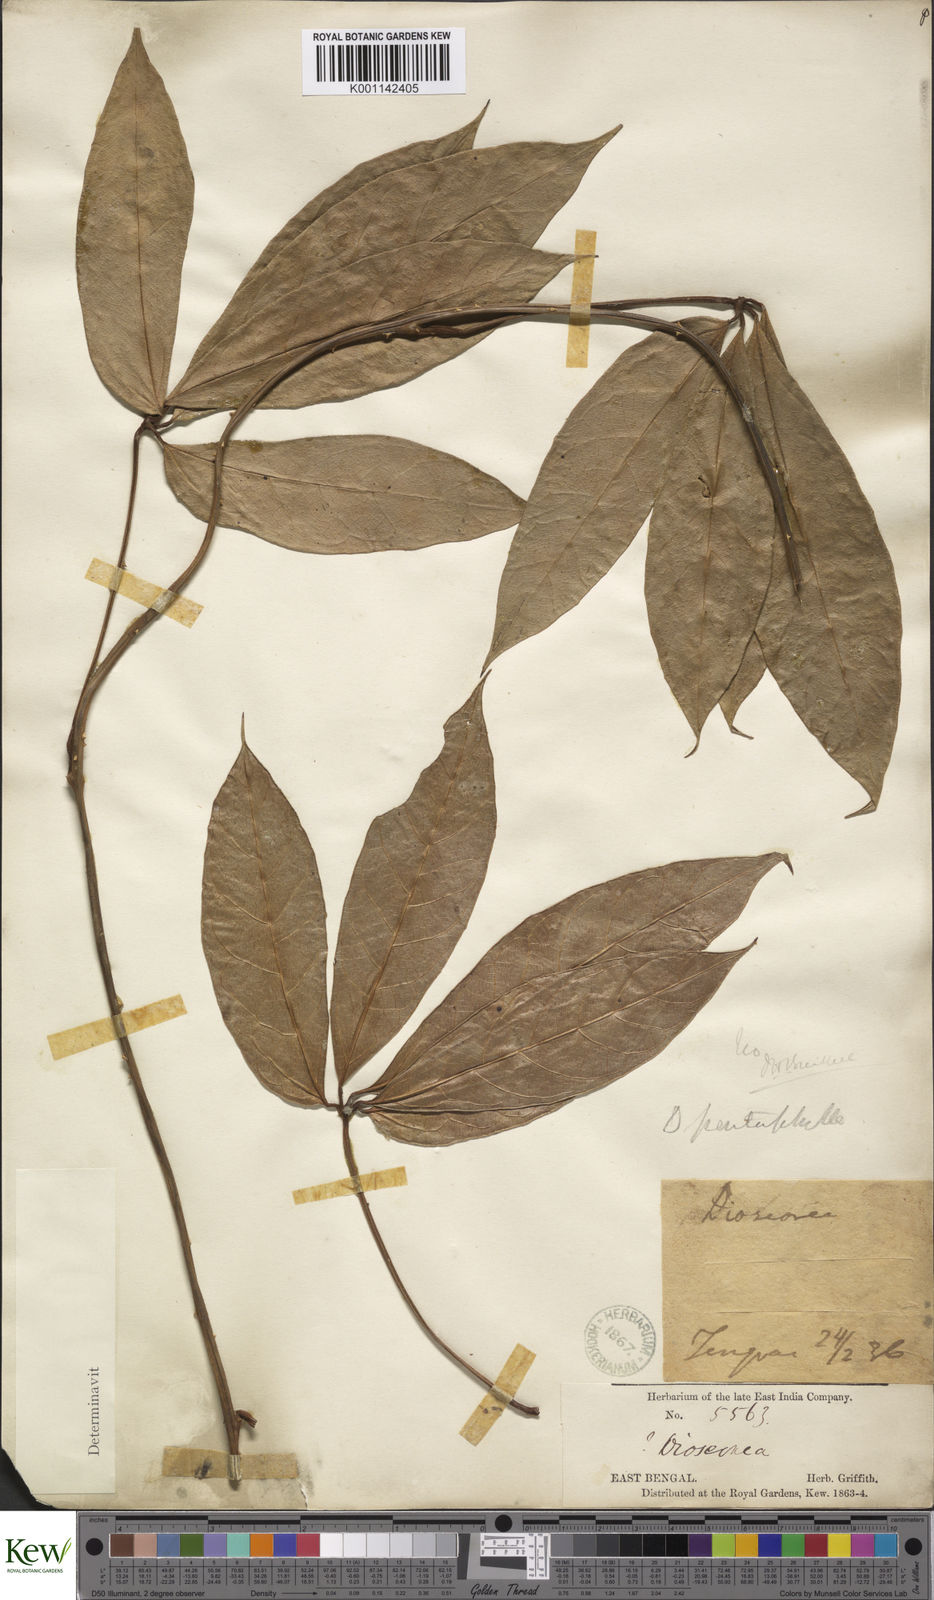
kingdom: Plantae
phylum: Tracheophyta
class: Liliopsida
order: Dioscoreales
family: Dioscoreaceae
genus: Dioscorea
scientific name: Dioscorea pentaphylla
